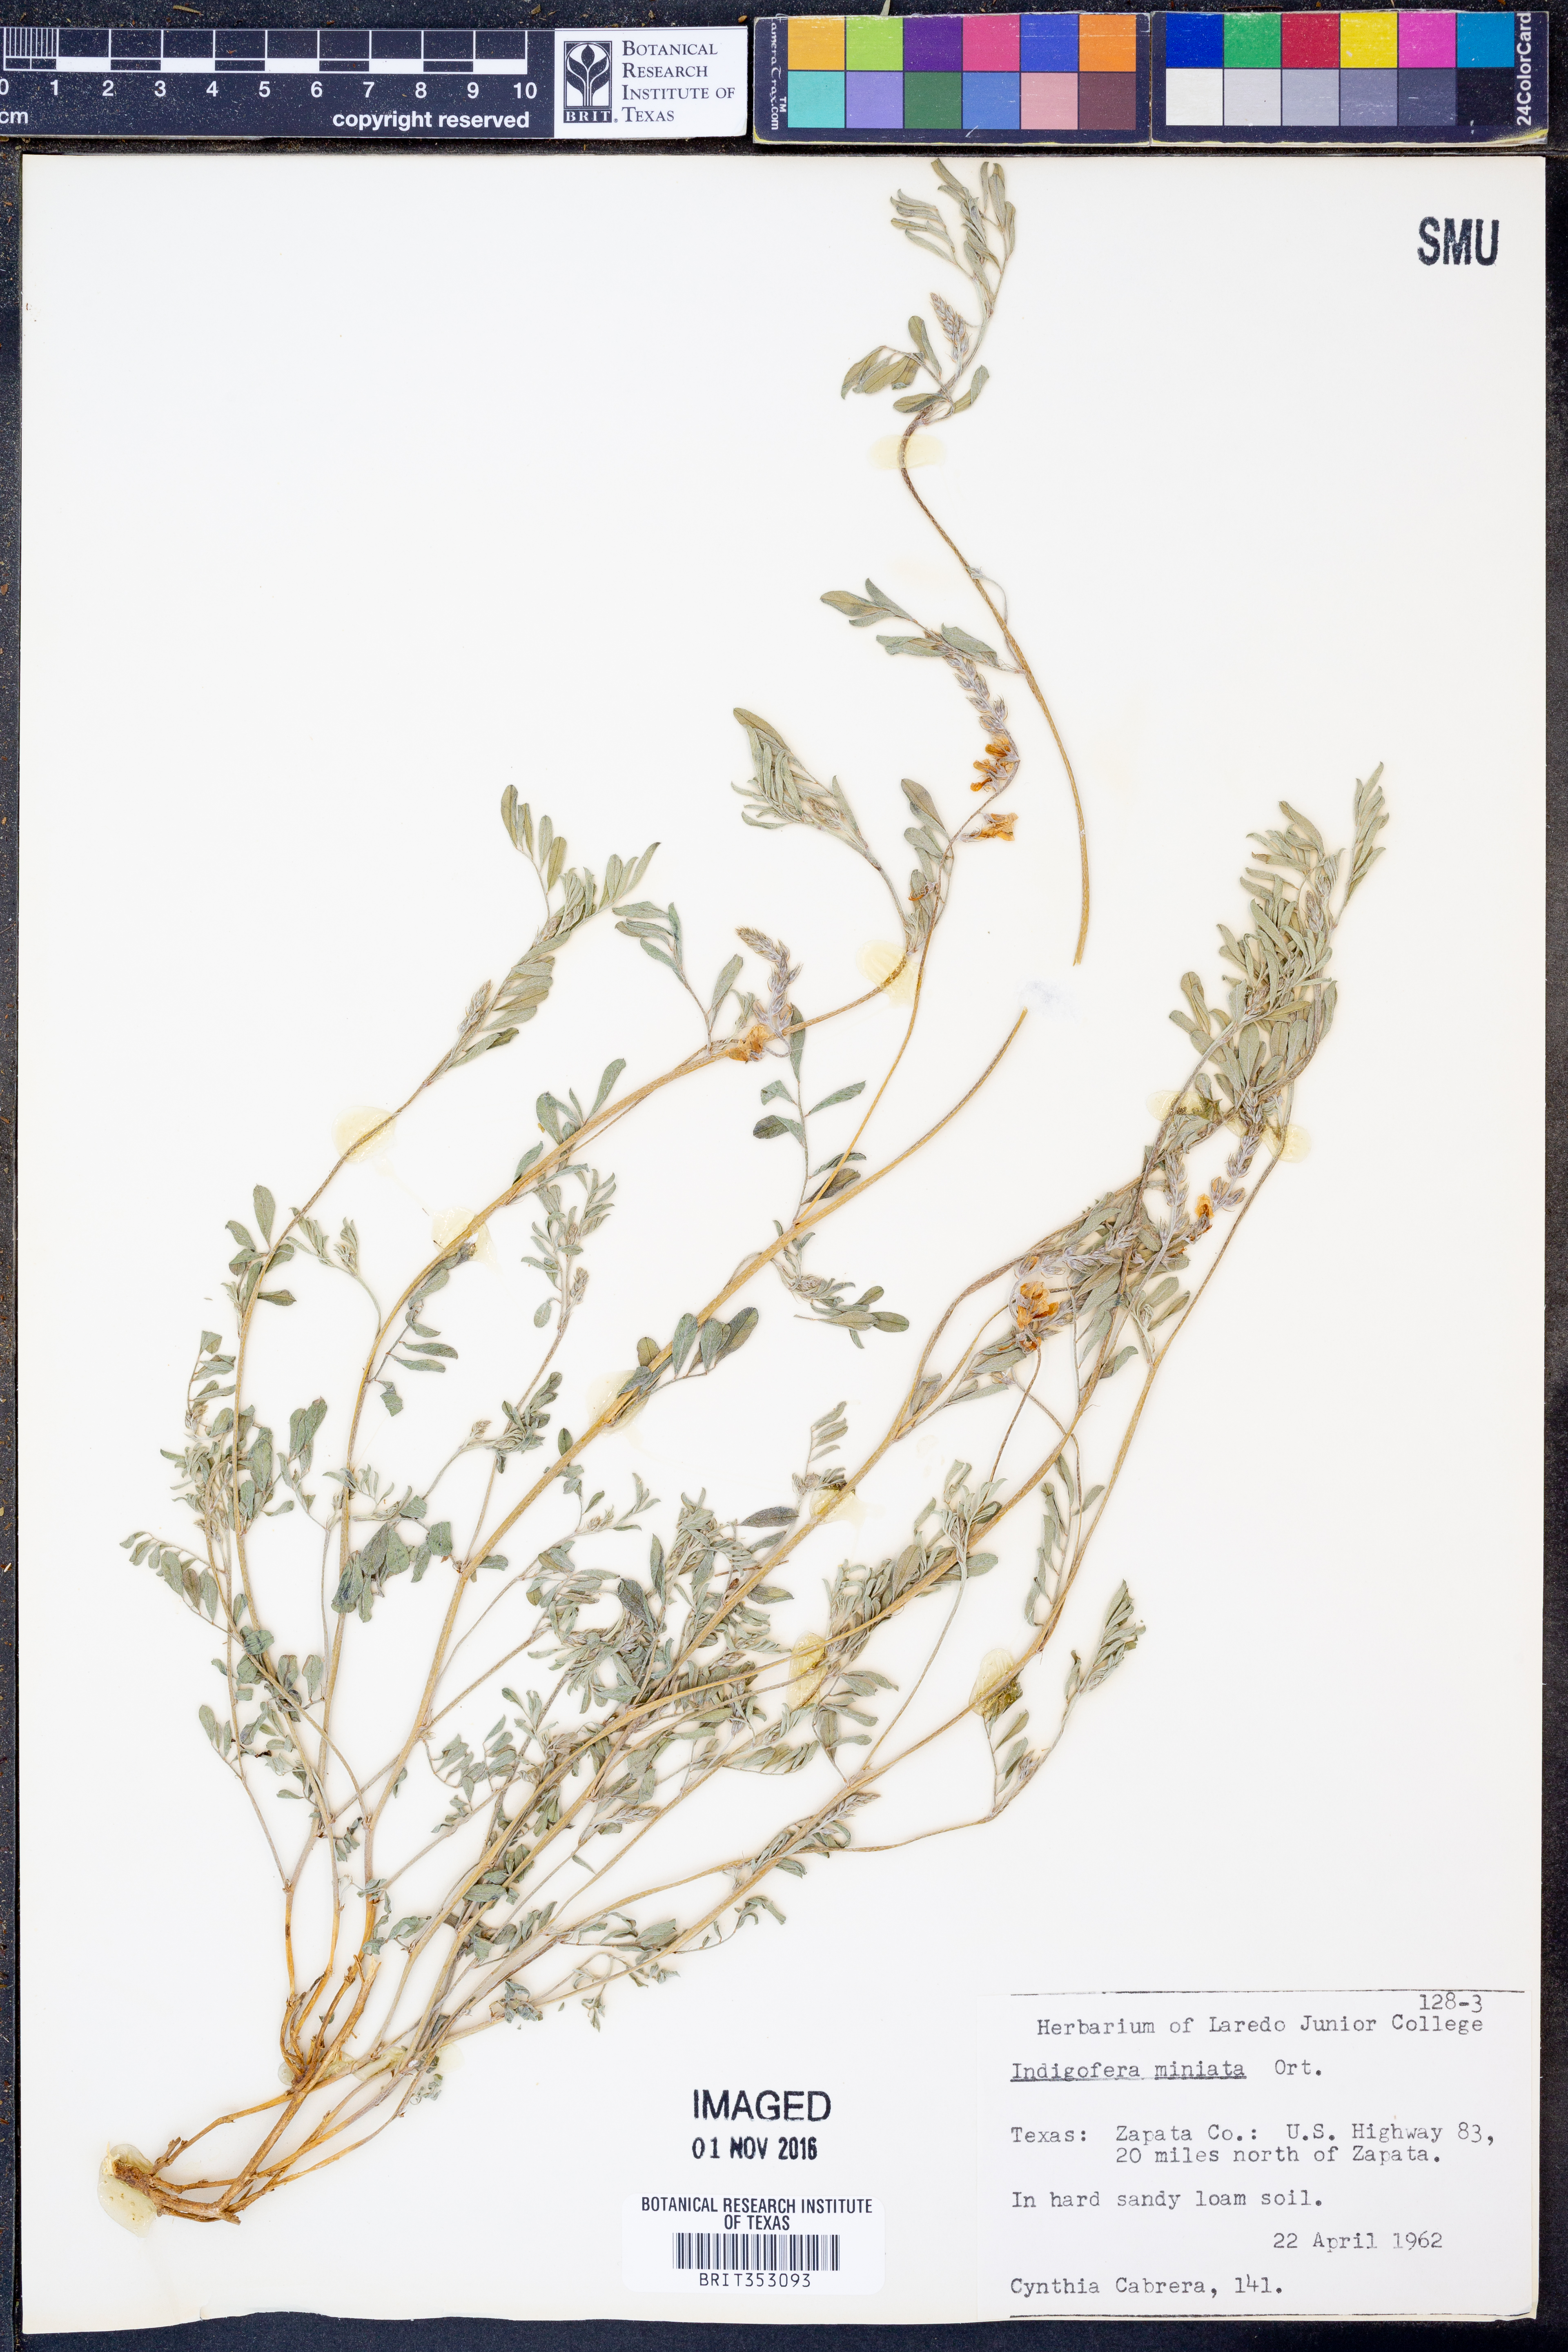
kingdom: Plantae
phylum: Tracheophyta
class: Magnoliopsida
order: Fabales
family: Fabaceae
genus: Indigofera
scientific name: Indigofera miniata
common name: Coast indigo
